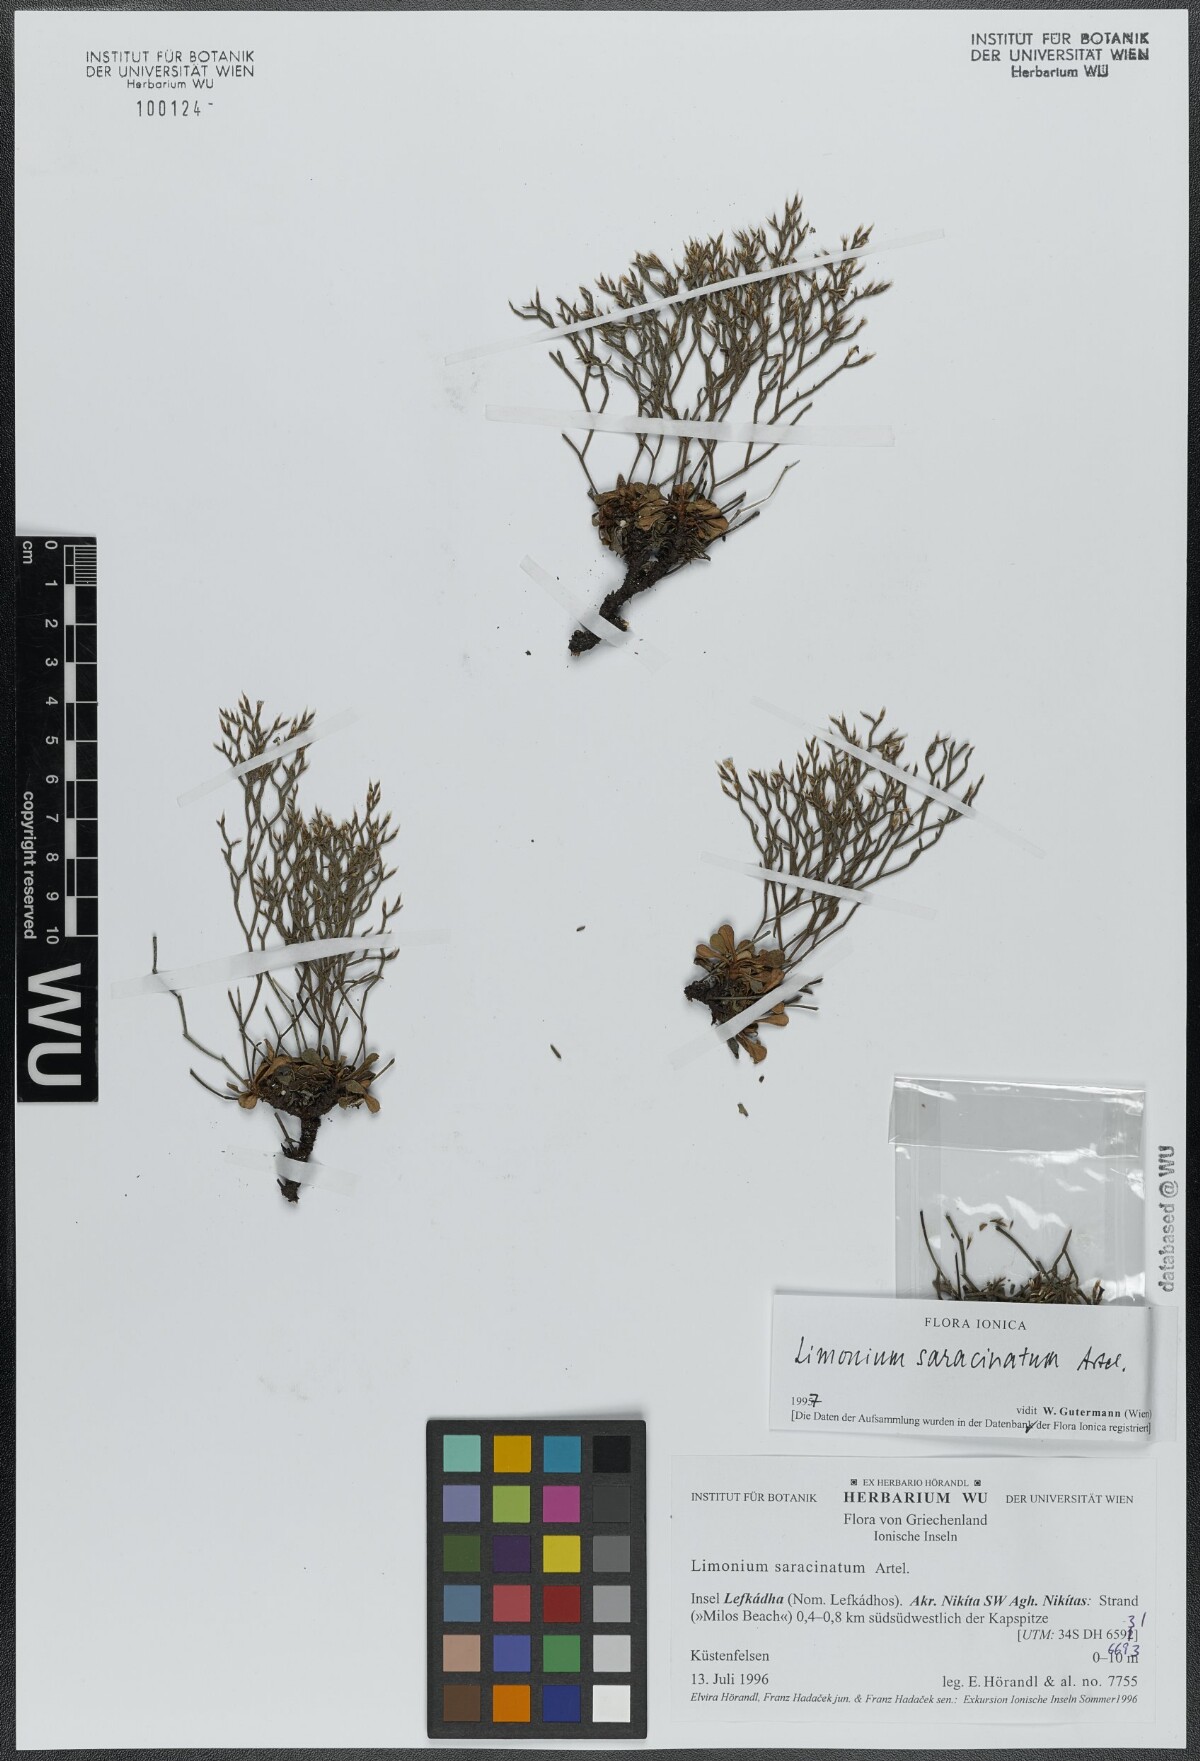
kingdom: Plantae
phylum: Tracheophyta
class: Magnoliopsida
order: Caryophyllales
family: Plumbaginaceae
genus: Limonium
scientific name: Limonium saracinatum
